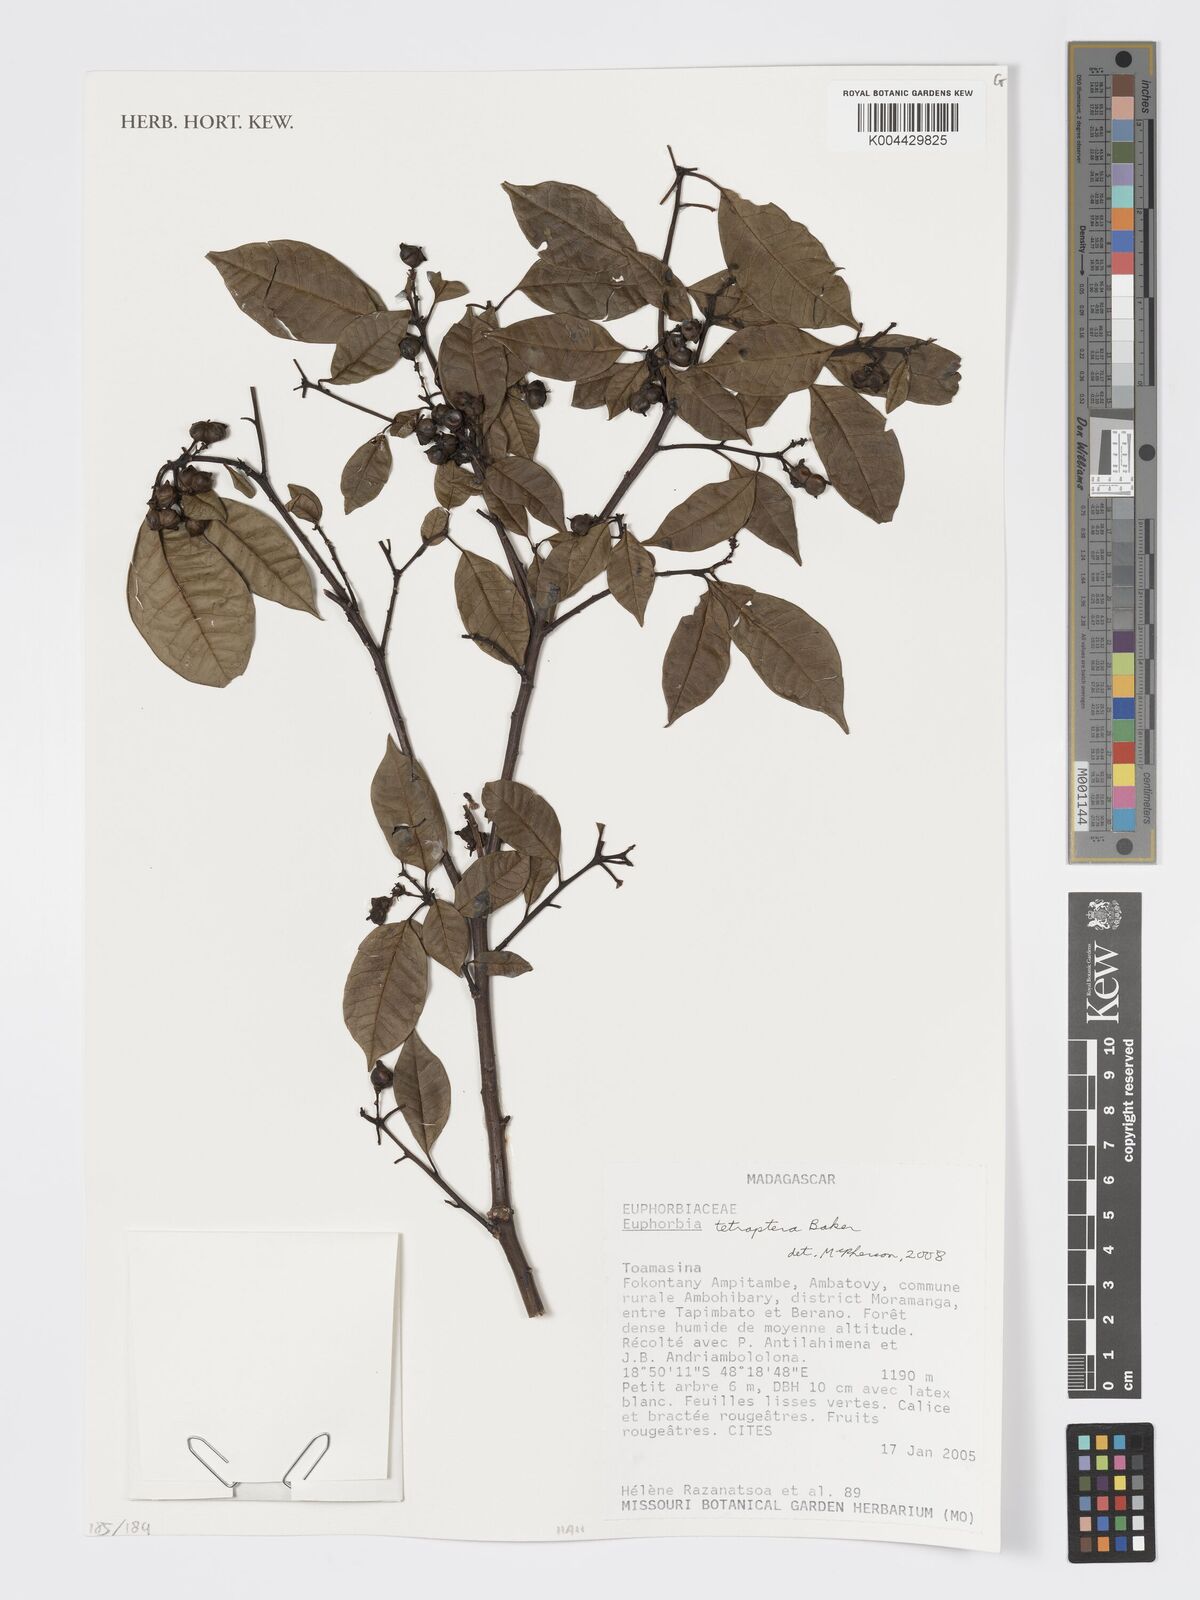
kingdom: Plantae
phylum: Tracheophyta
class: Magnoliopsida
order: Malpighiales
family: Euphorbiaceae
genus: Euphorbia
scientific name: Euphorbia tetraptera
